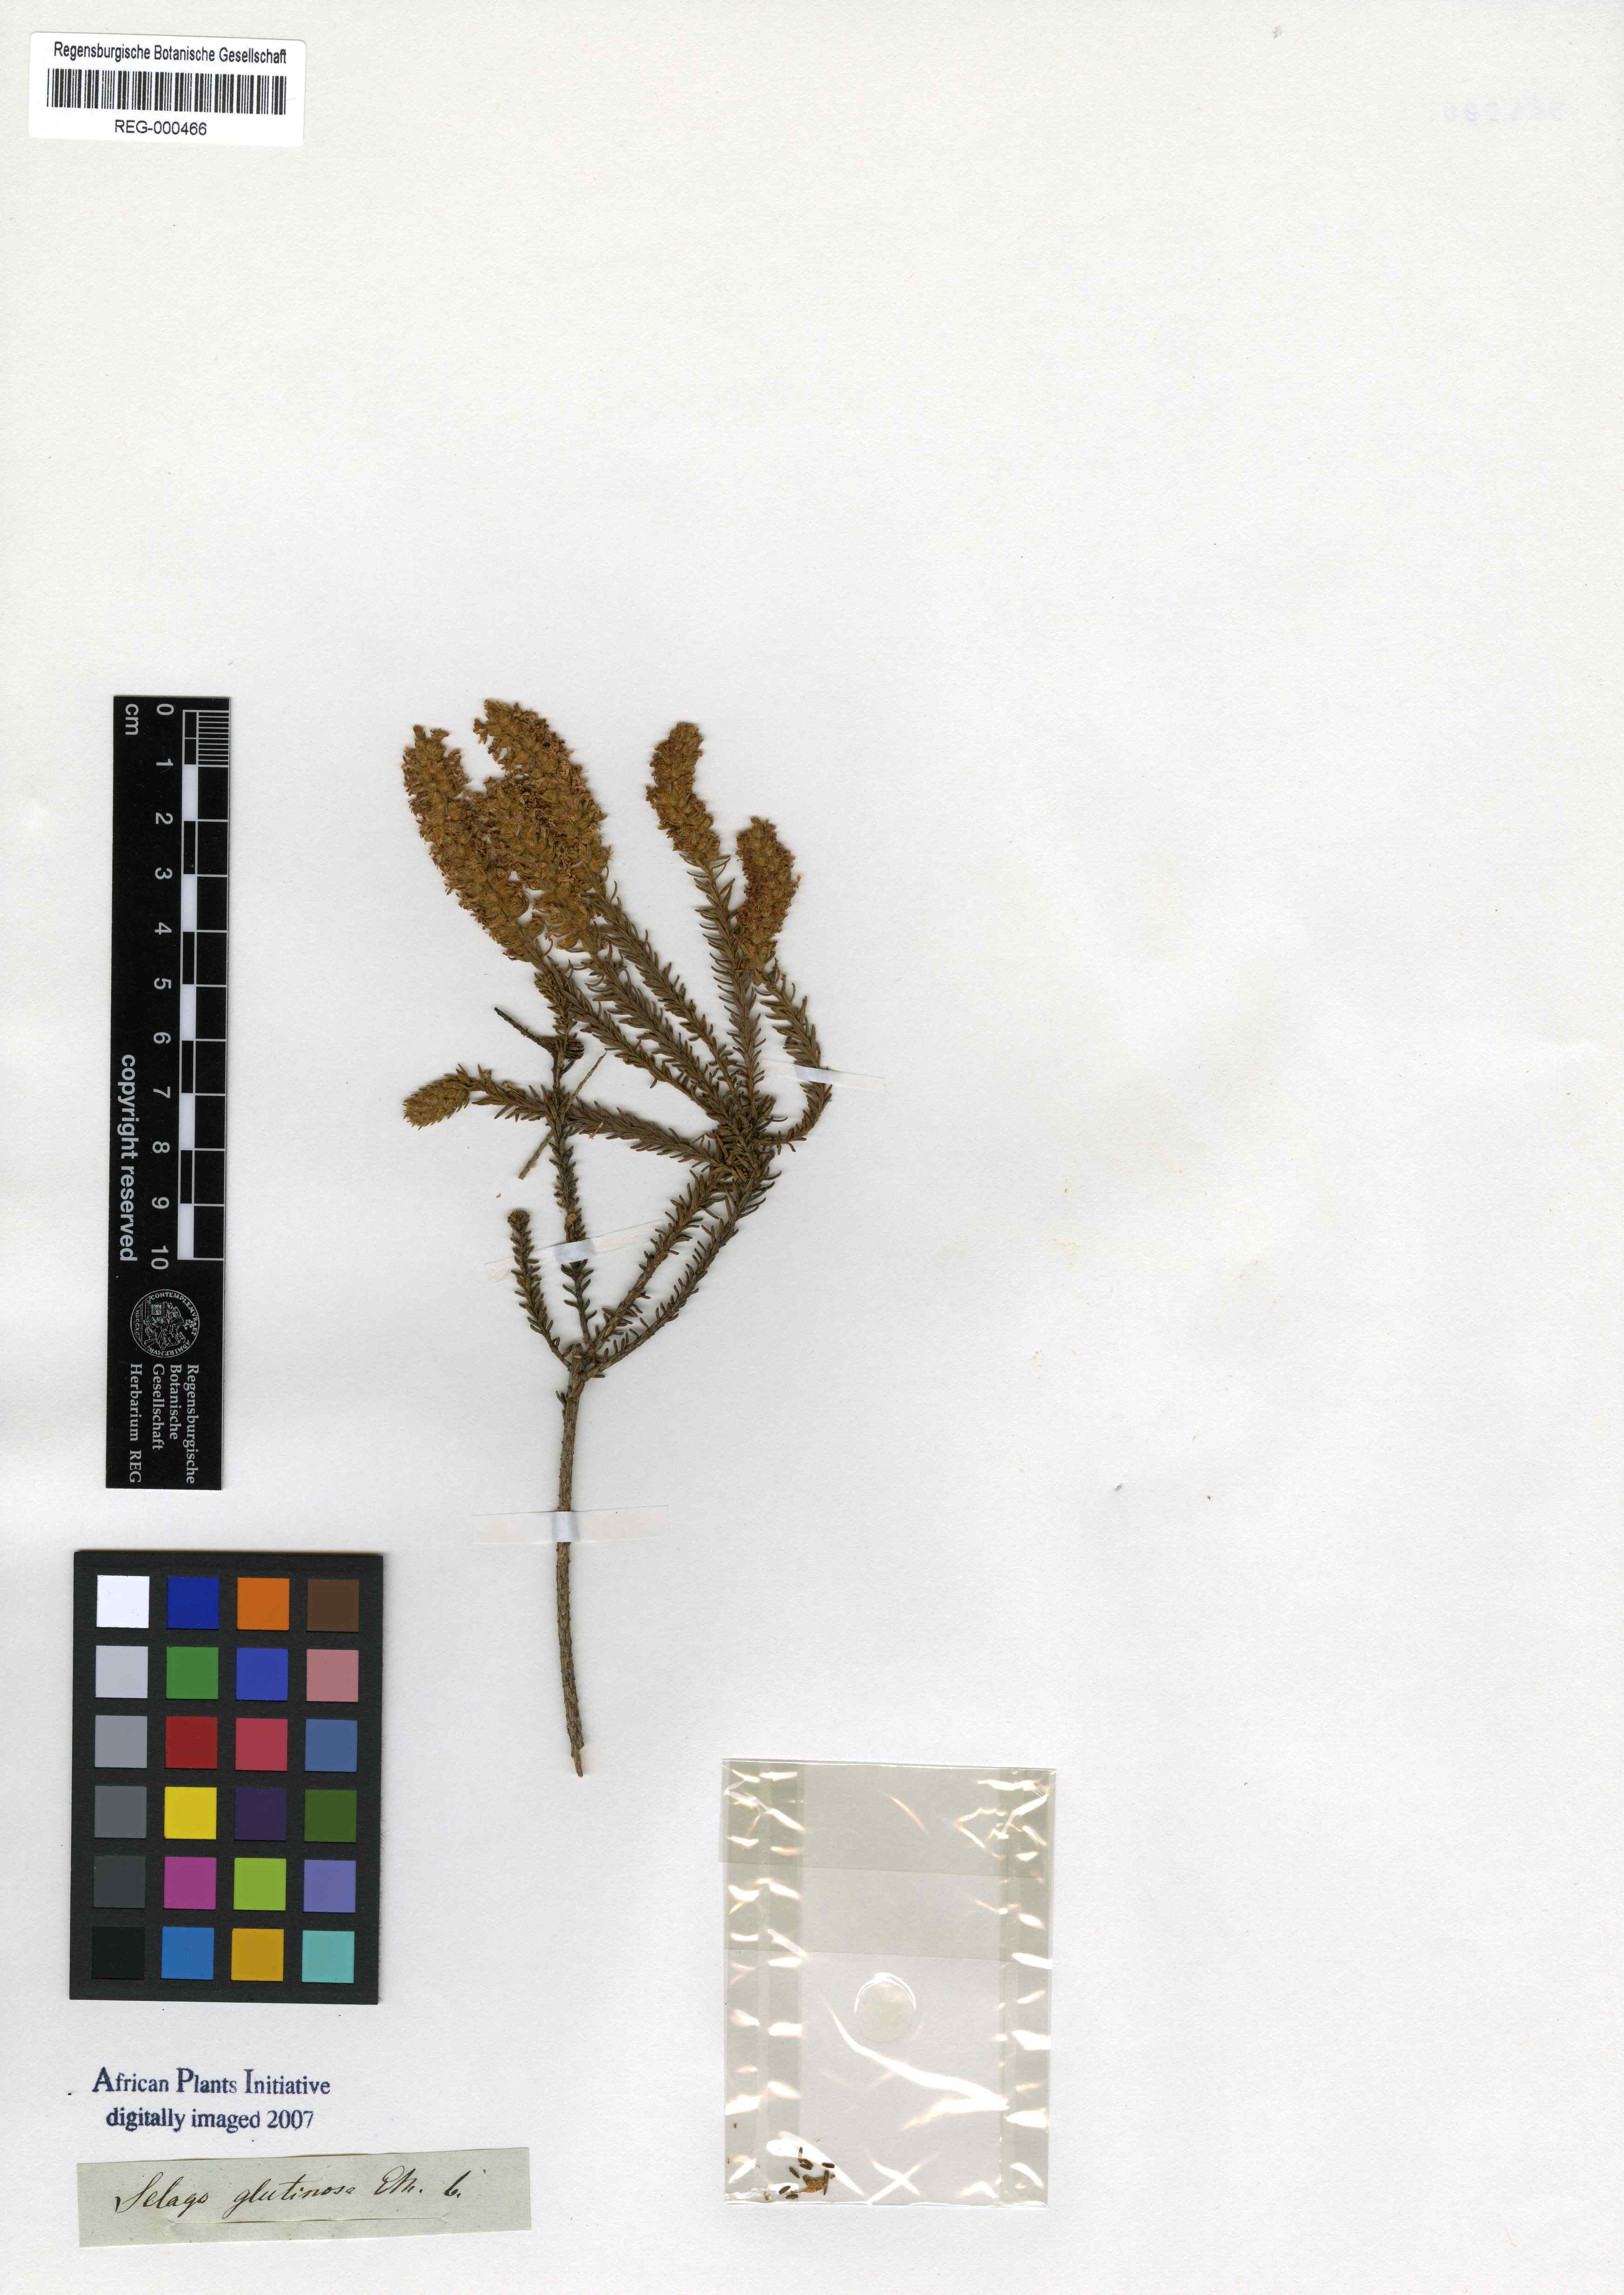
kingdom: Plantae
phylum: Tracheophyta
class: Magnoliopsida
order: Lamiales
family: Scrophulariaceae
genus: Selago
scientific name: Selago glutinosa
